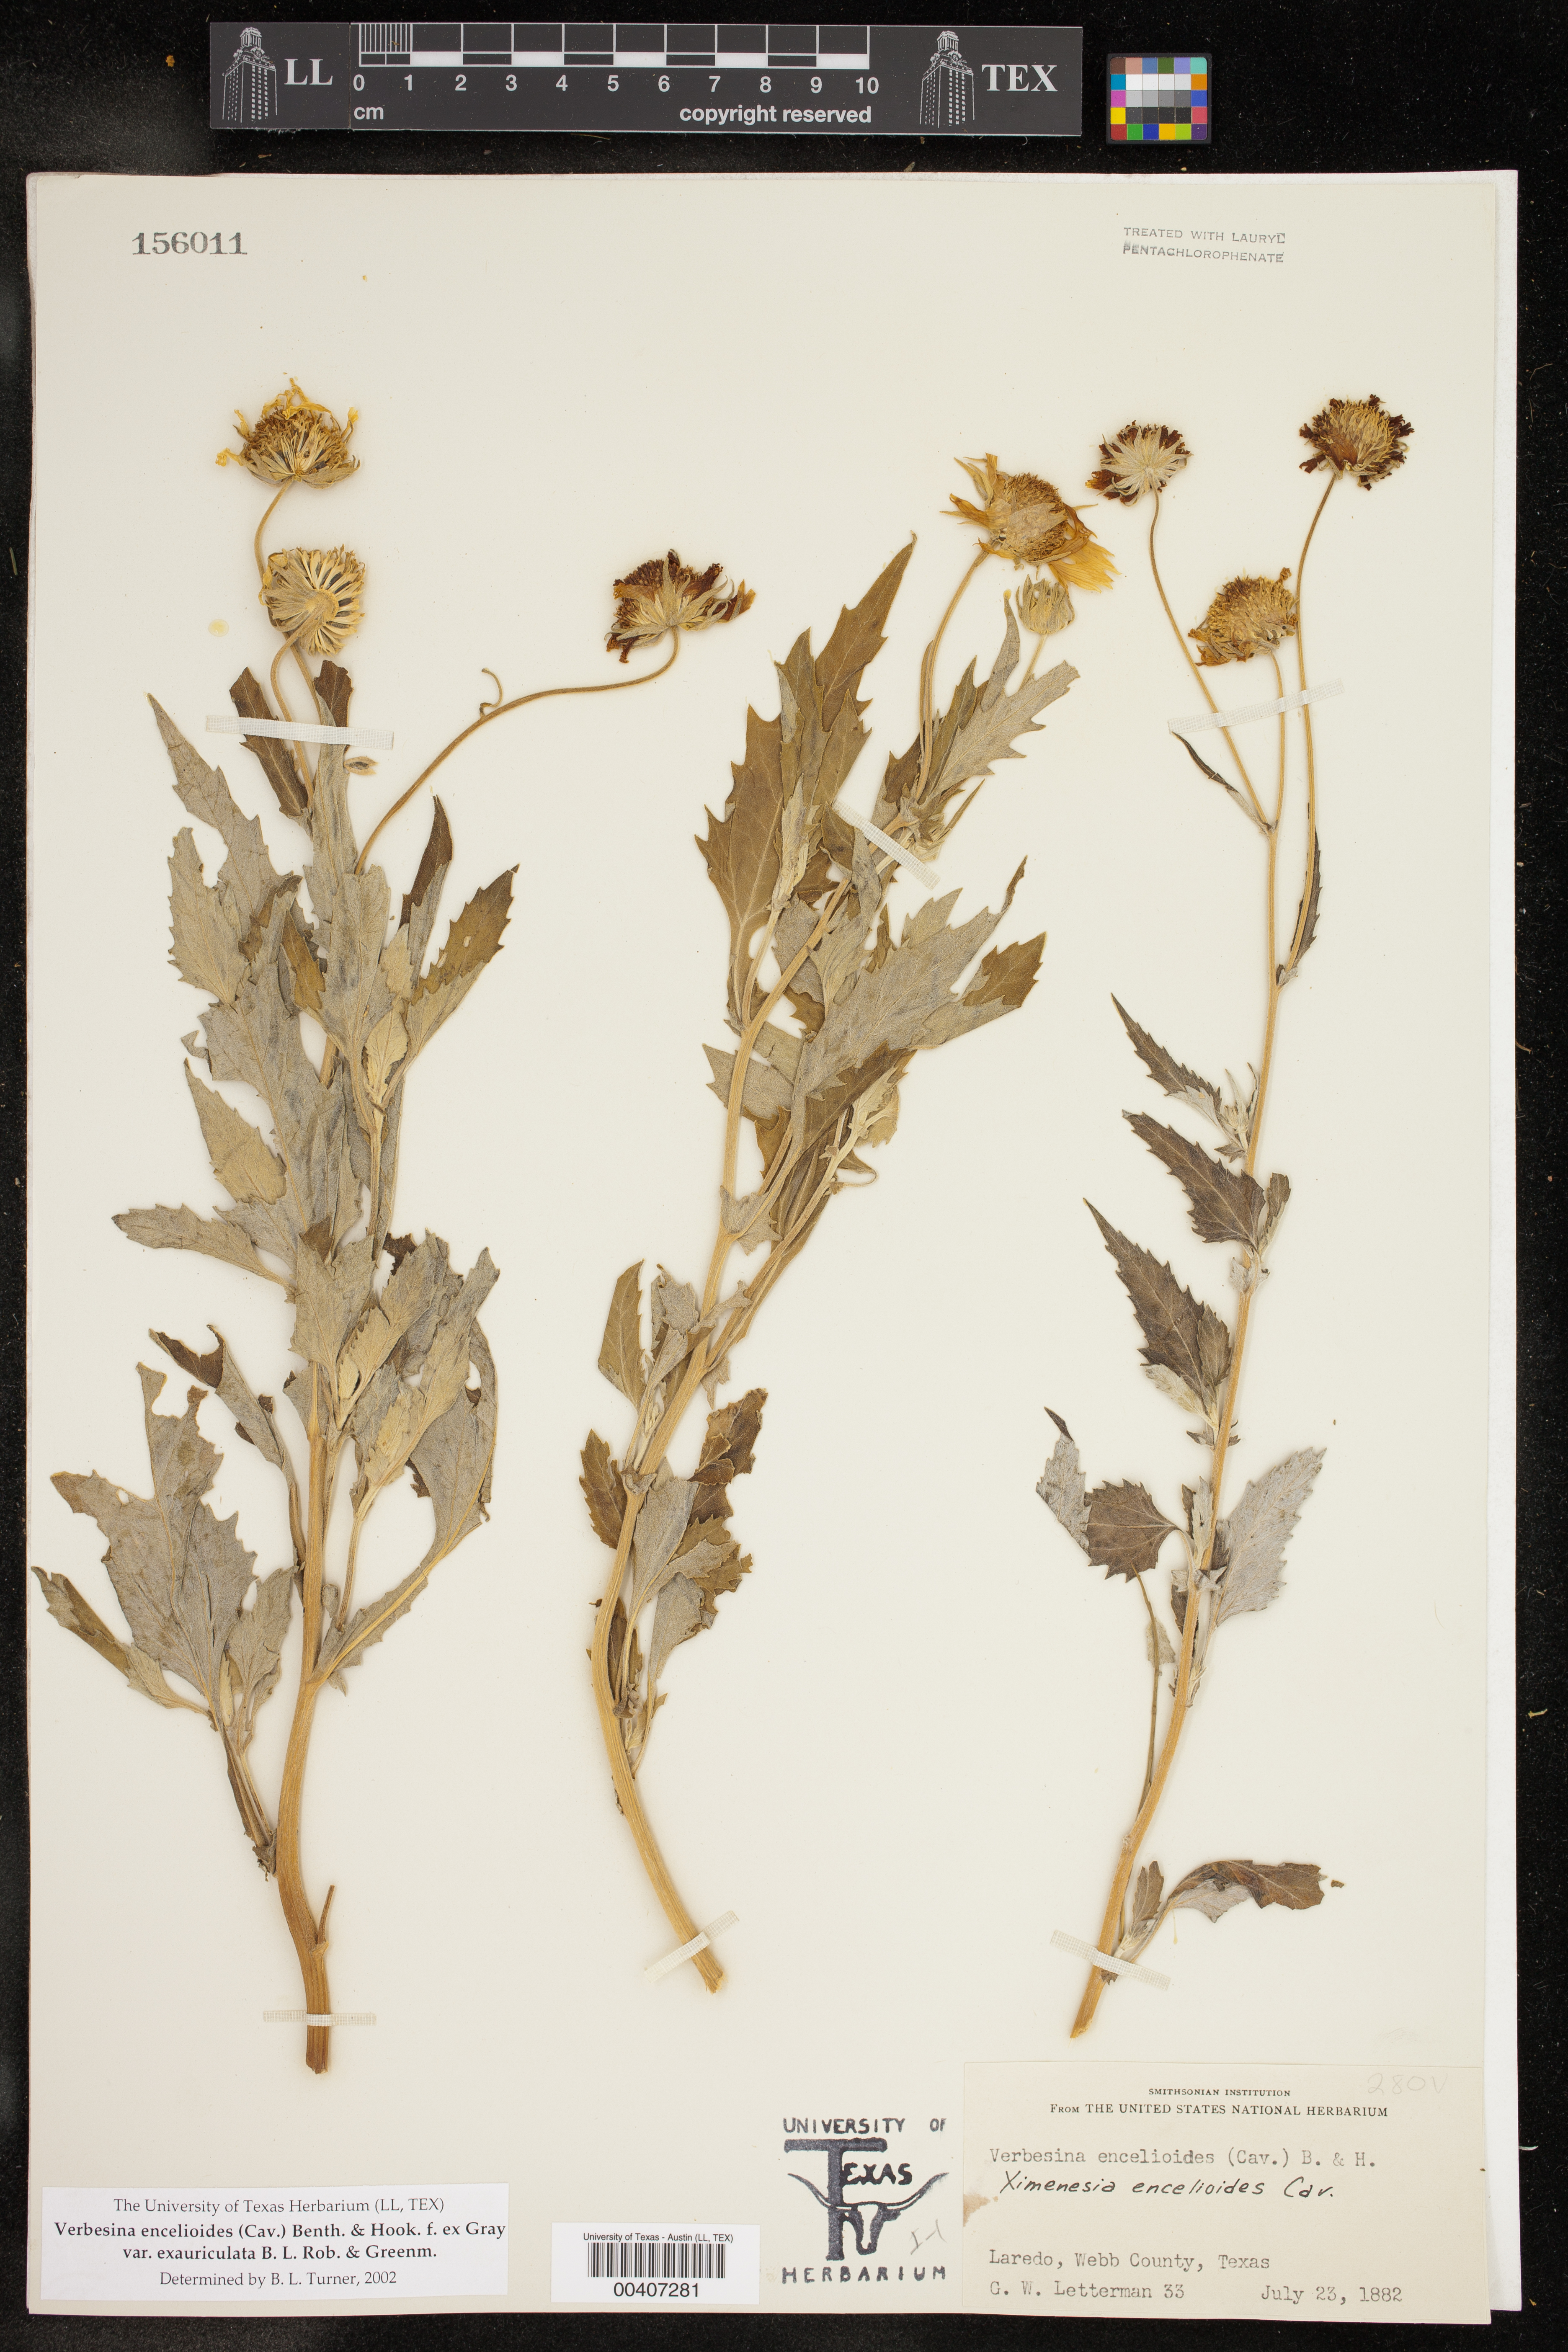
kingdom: Plantae
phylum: Tracheophyta
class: Magnoliopsida
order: Asterales
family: Asteraceae
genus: Verbesina
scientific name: Verbesina encelioides
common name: Golden crownbeard
